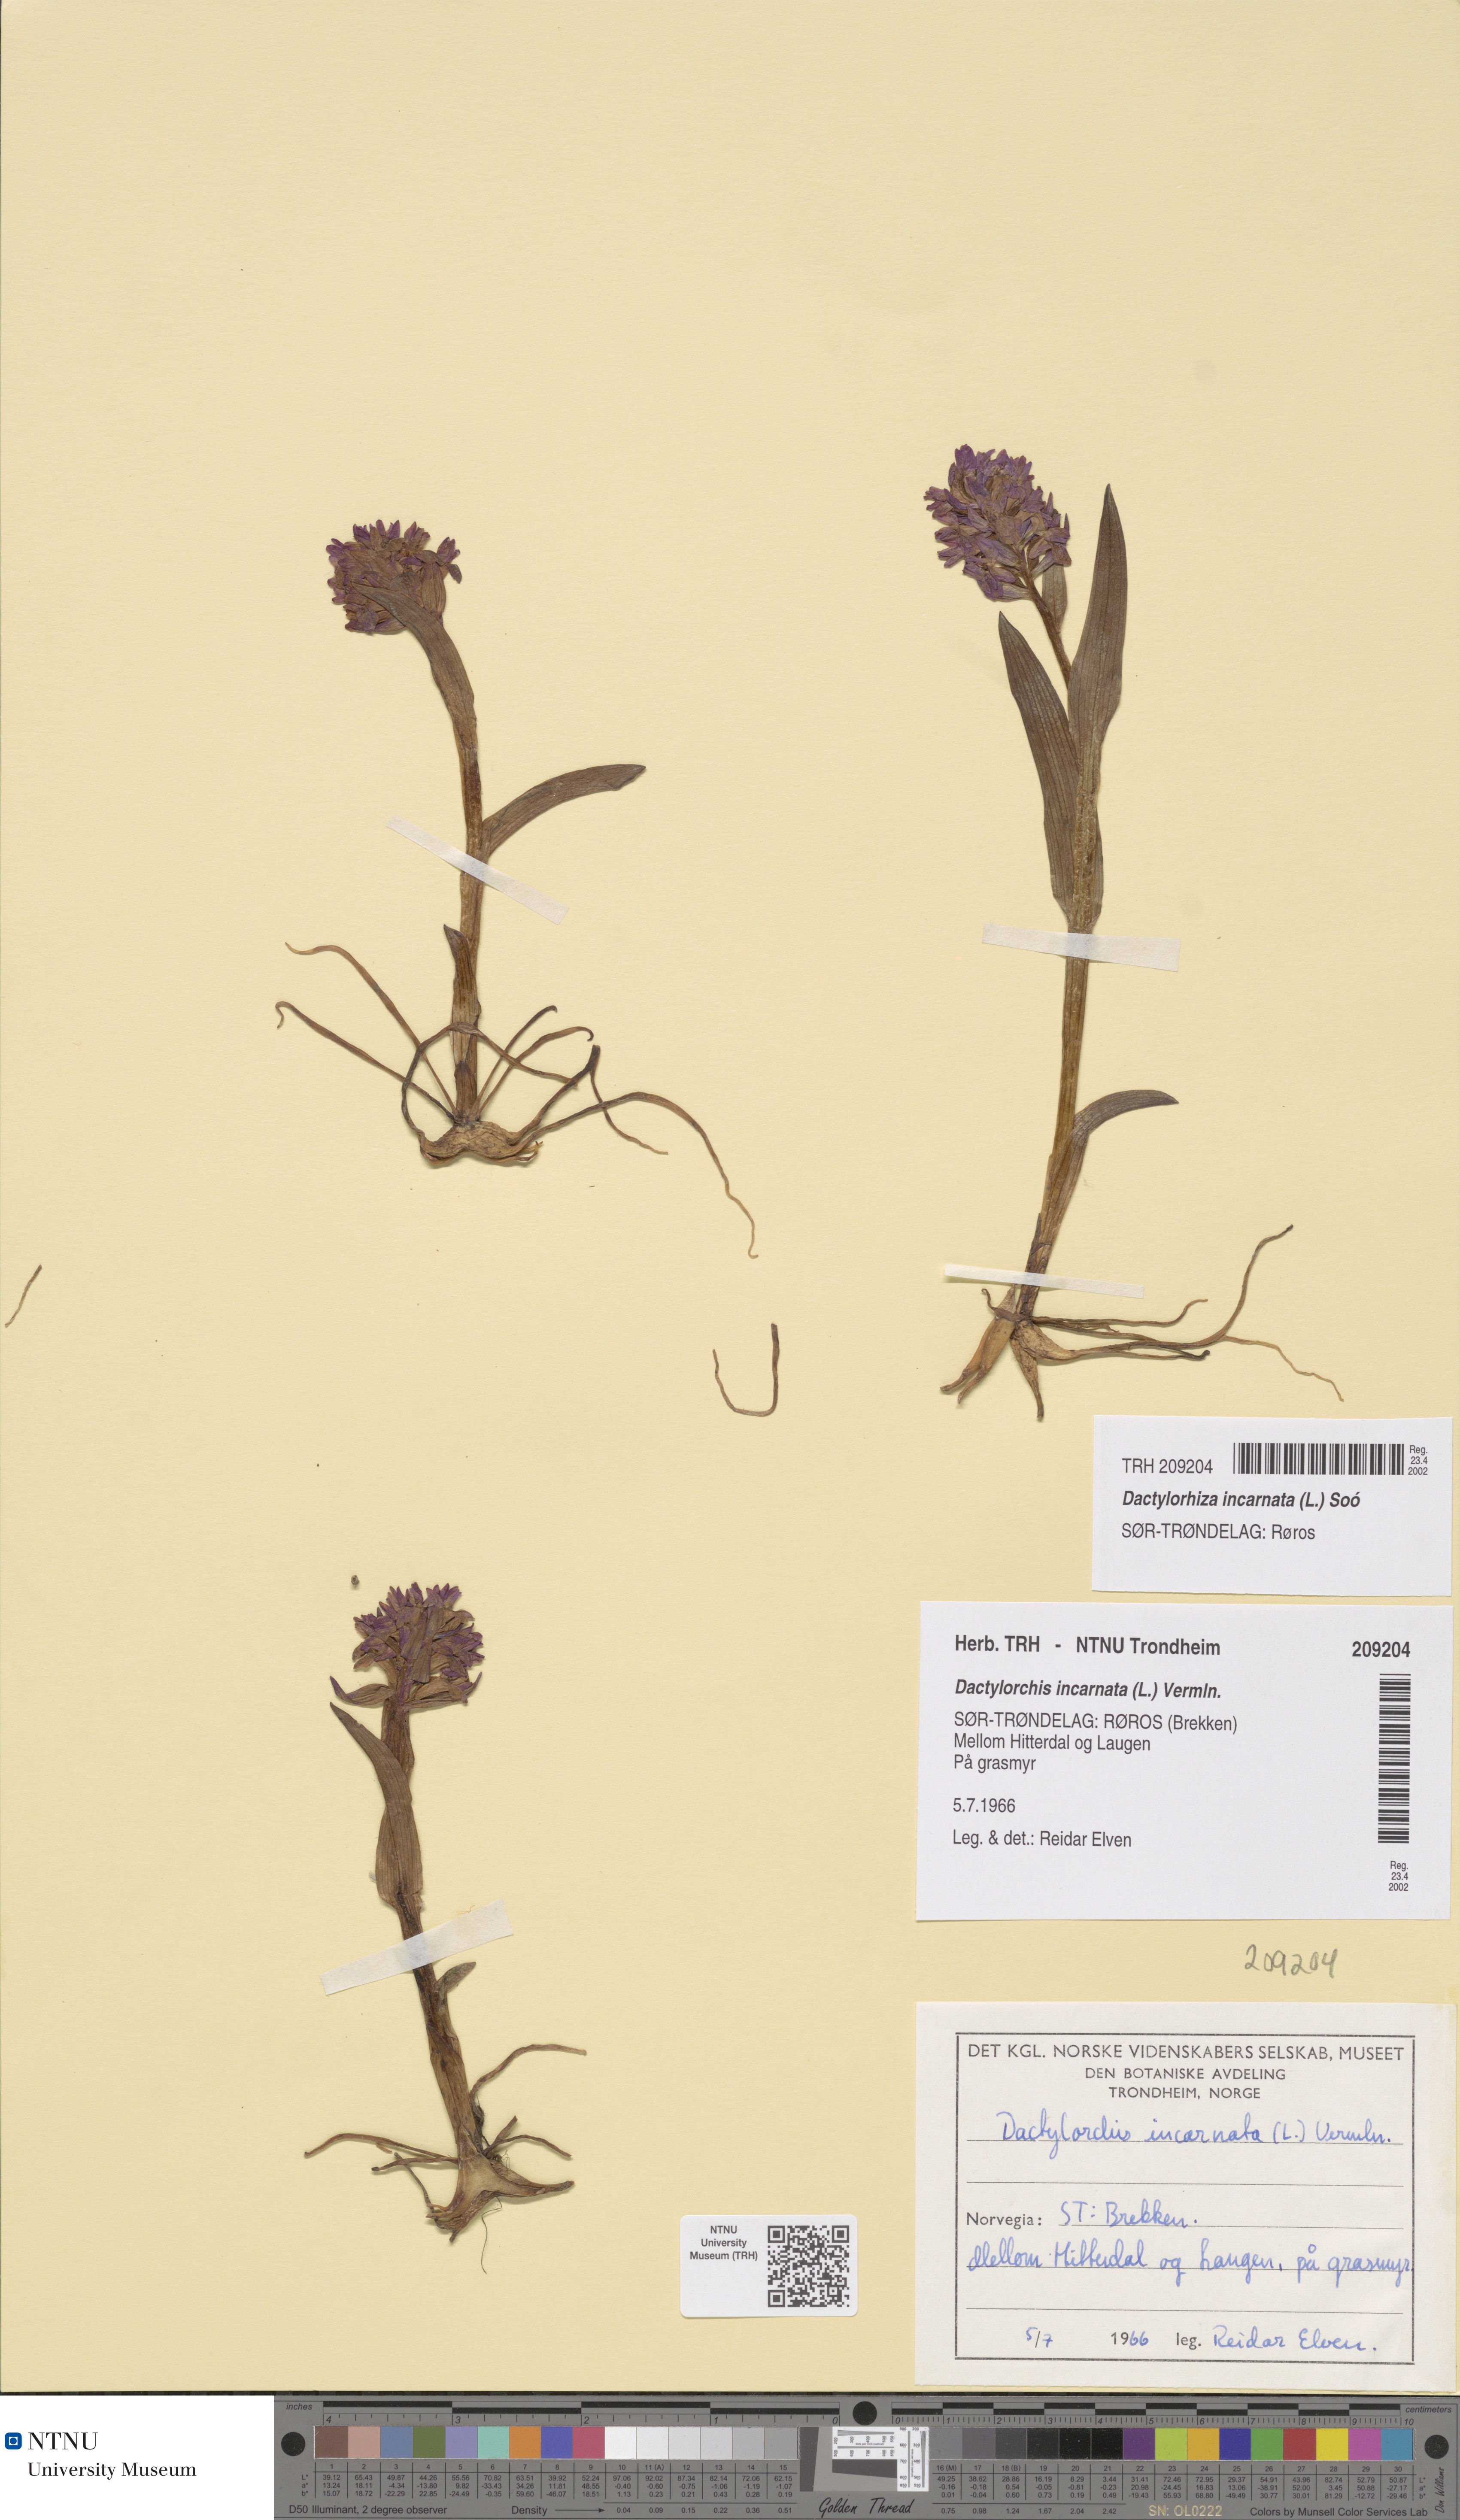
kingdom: Plantae
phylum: Tracheophyta
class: Liliopsida
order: Asparagales
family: Orchidaceae
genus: Dactylorhiza
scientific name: Dactylorhiza incarnata
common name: Early marsh-orchid
